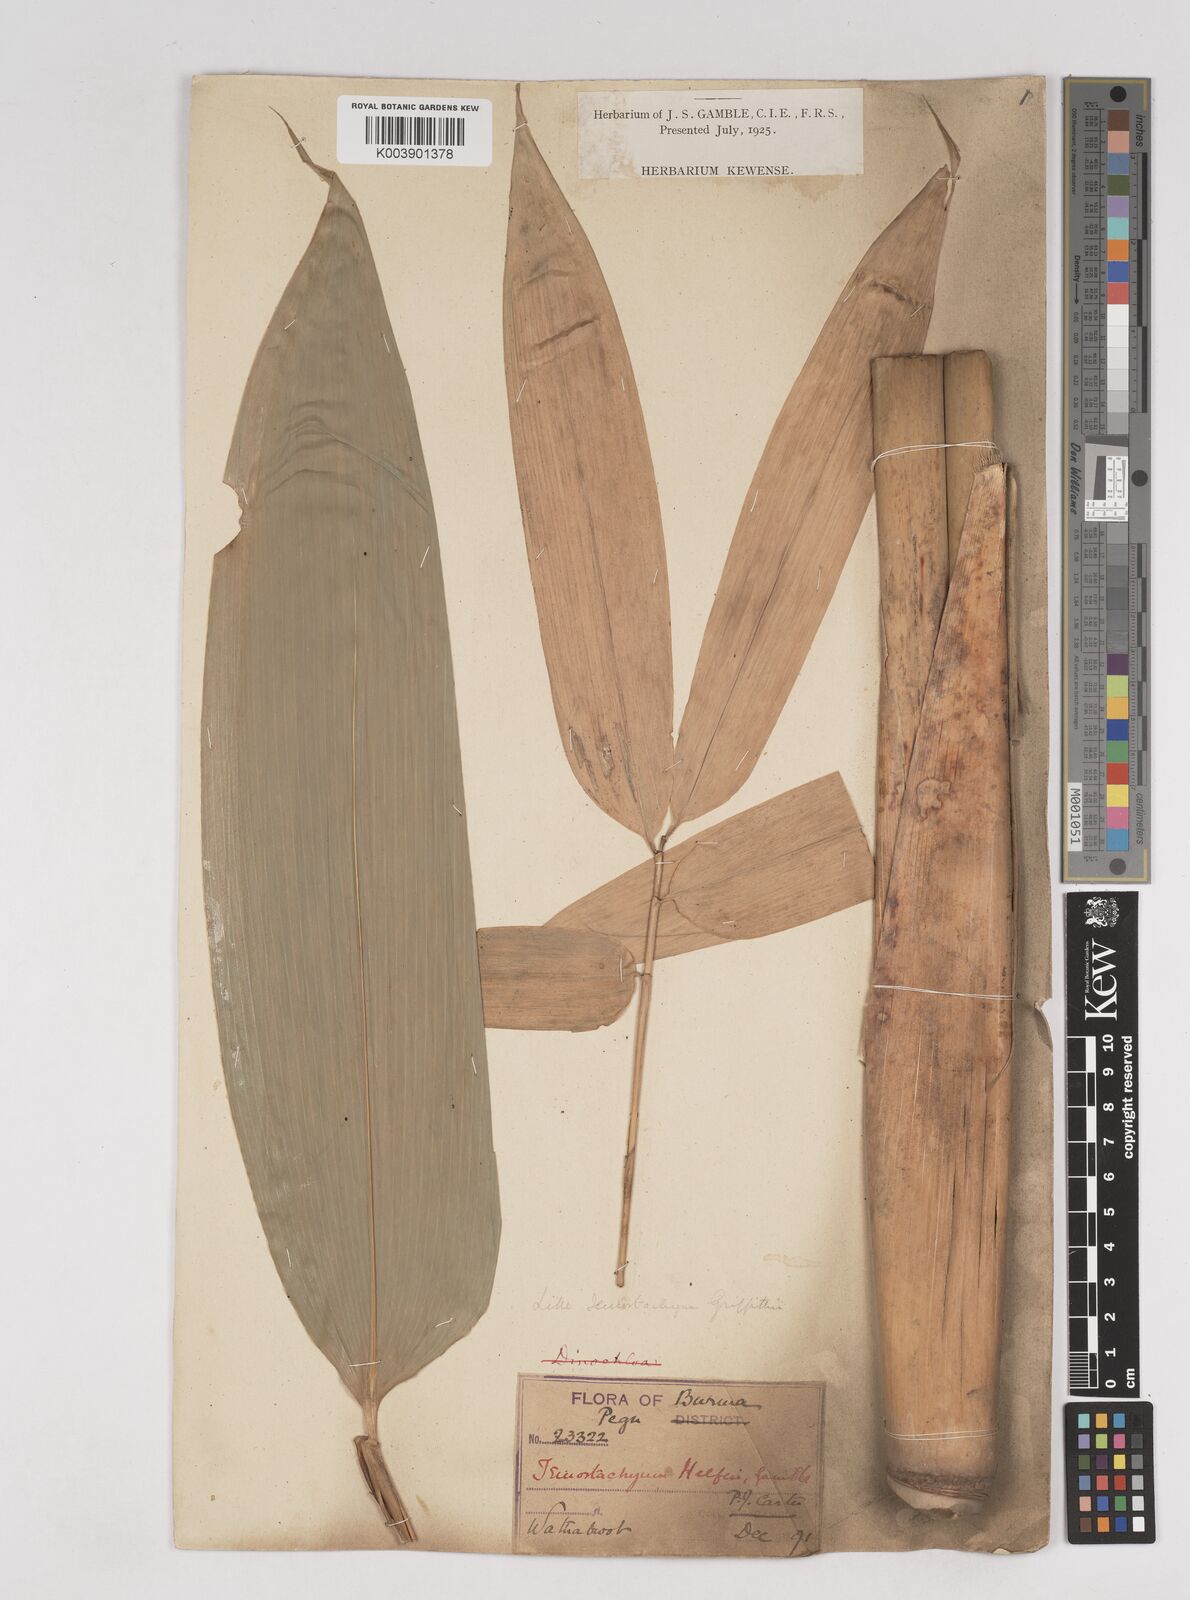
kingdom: Plantae
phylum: Tracheophyta
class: Liliopsida
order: Poales
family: Poaceae
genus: Schizostachyum
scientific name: Schizostachyum helferi
